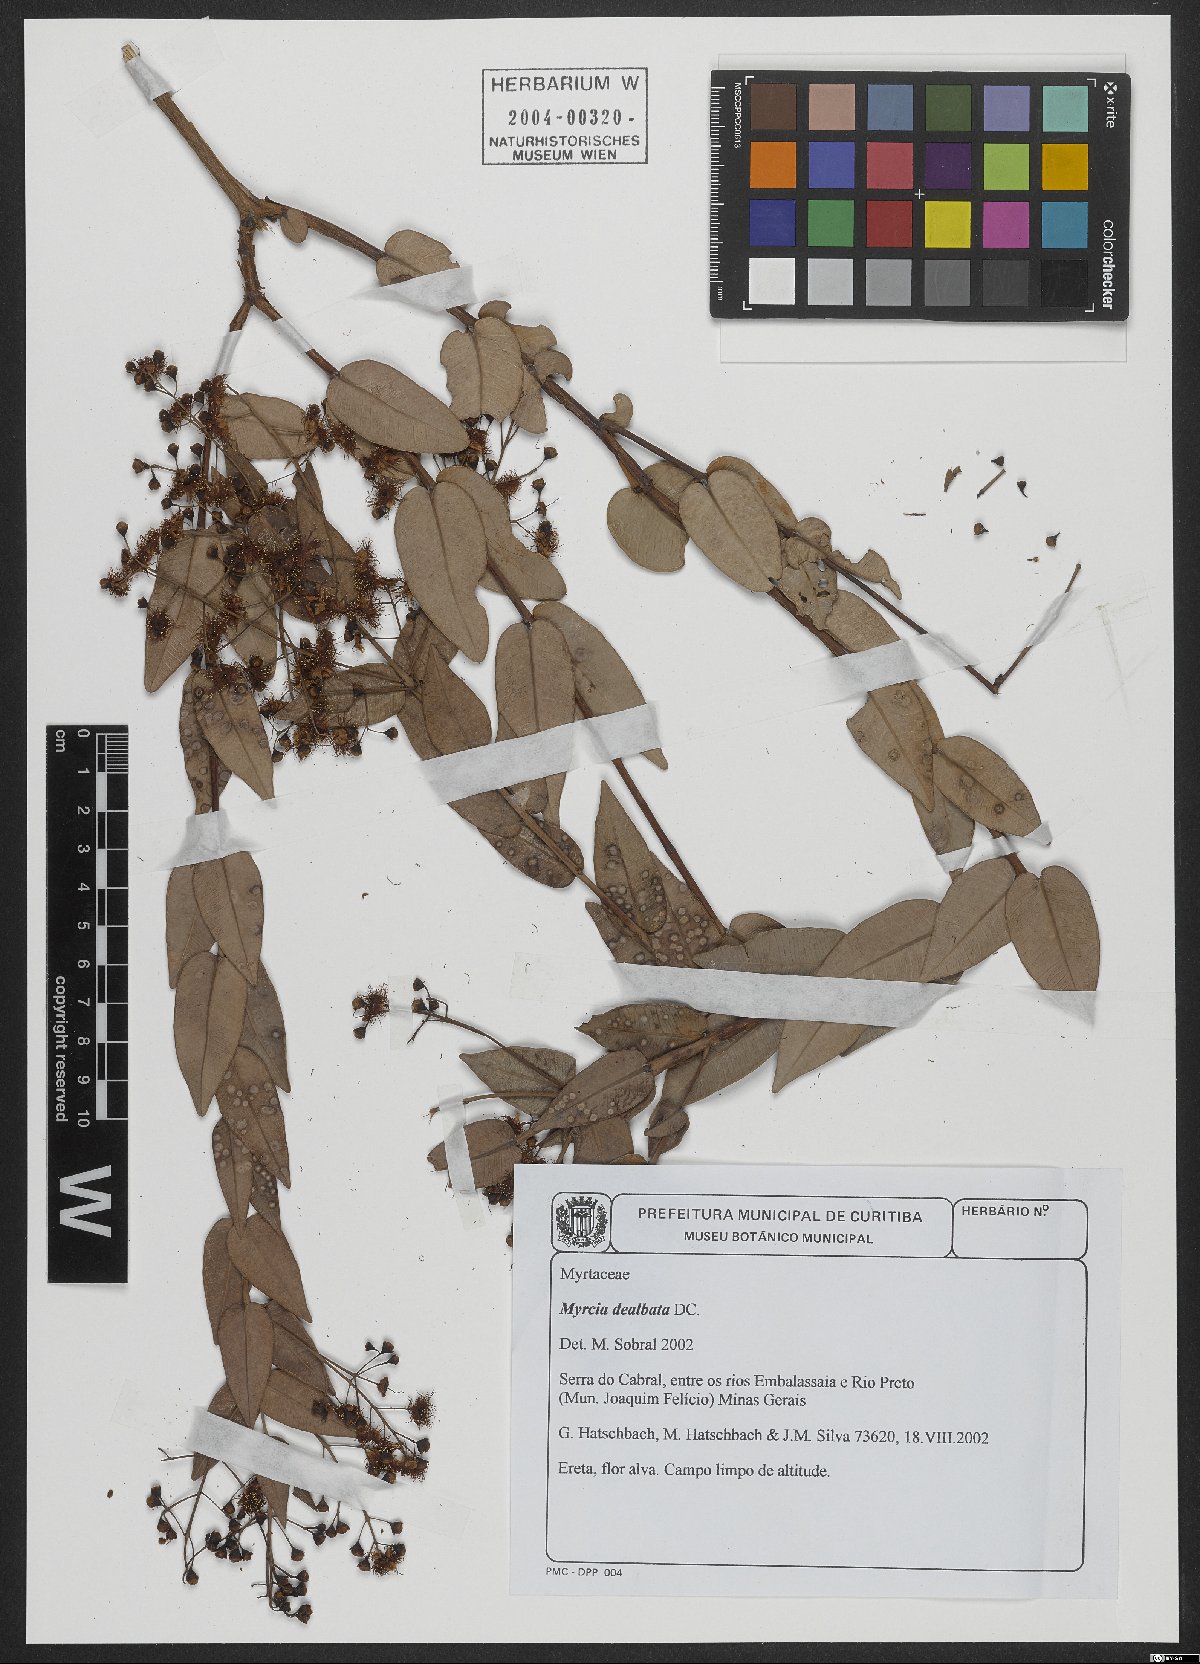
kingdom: Plantae
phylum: Tracheophyta
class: Magnoliopsida
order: Myrtales
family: Myrtaceae
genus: Myrcia
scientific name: Myrcia dealbata
